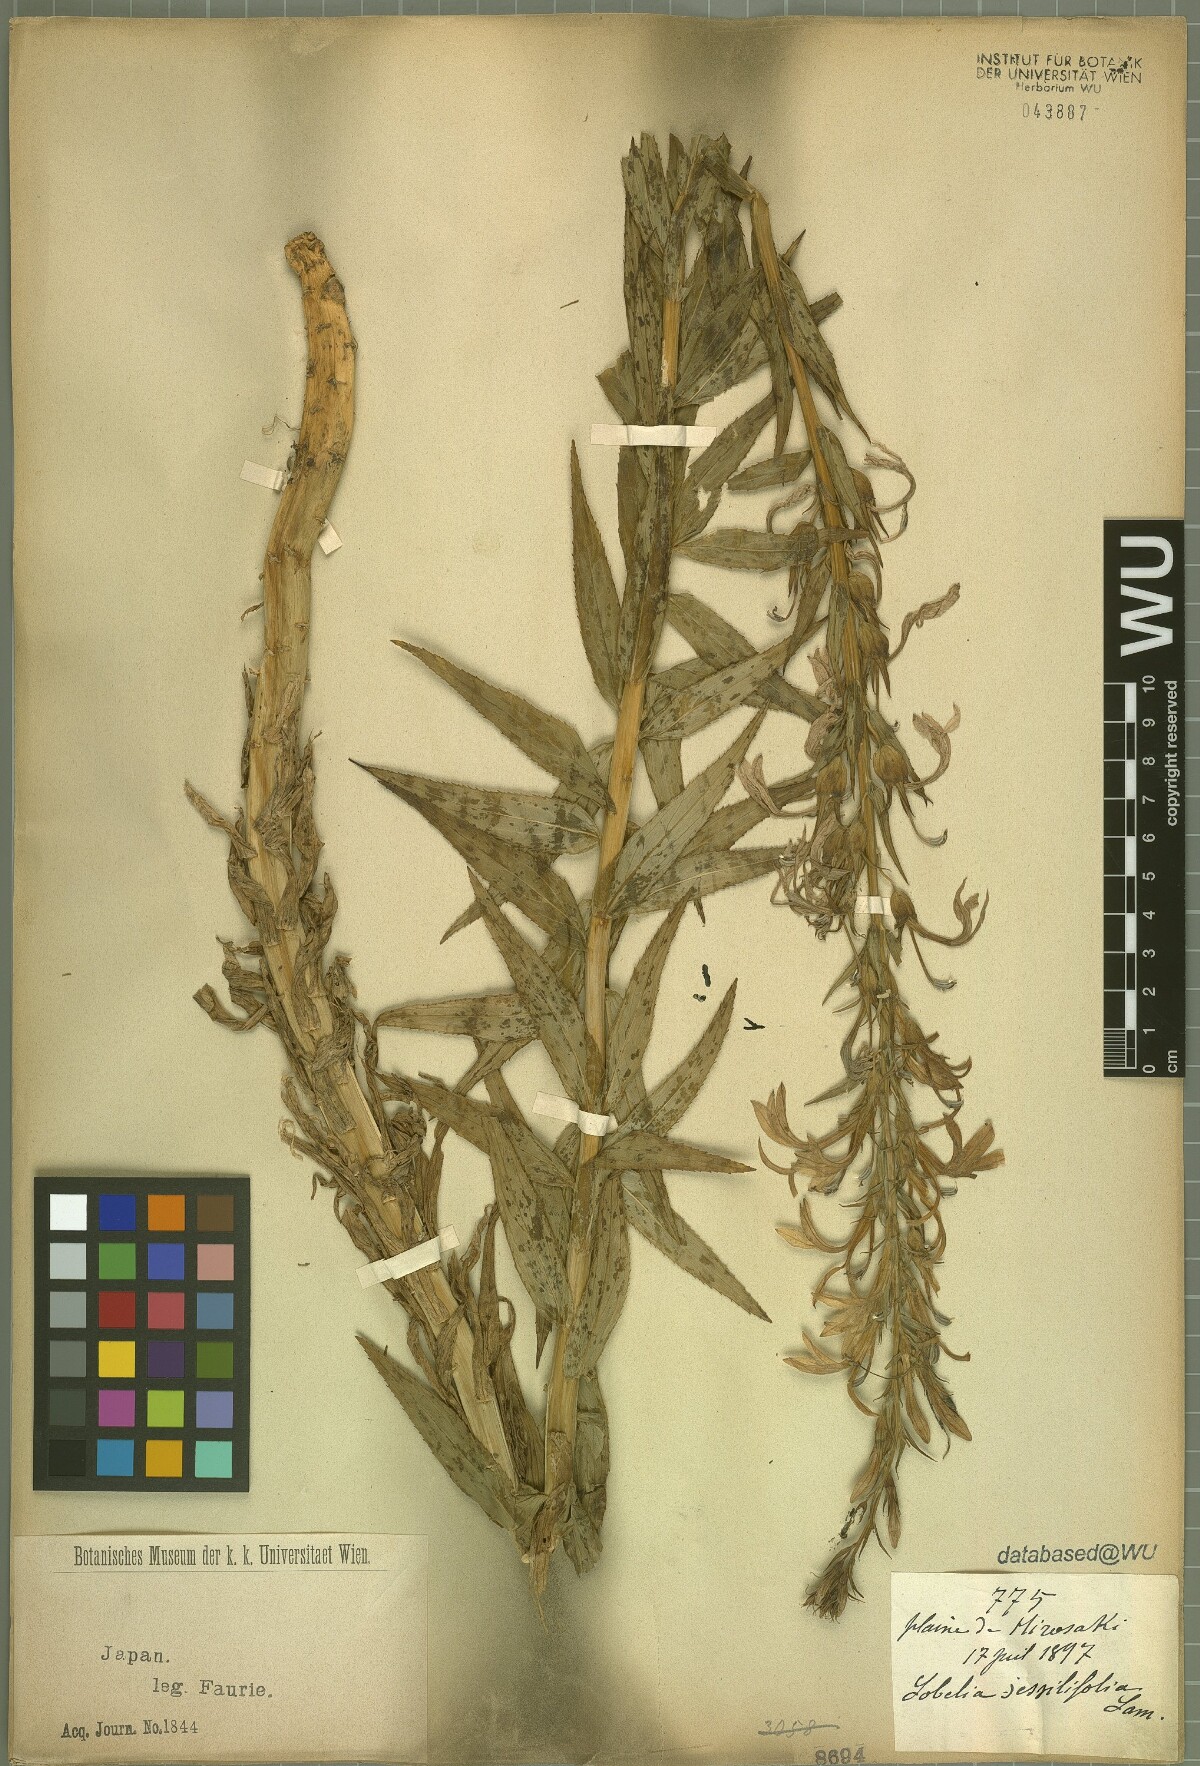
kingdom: Plantae
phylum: Tracheophyta
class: Magnoliopsida
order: Asterales
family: Campanulaceae
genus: Lobelia
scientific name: Lobelia sessilifolia
